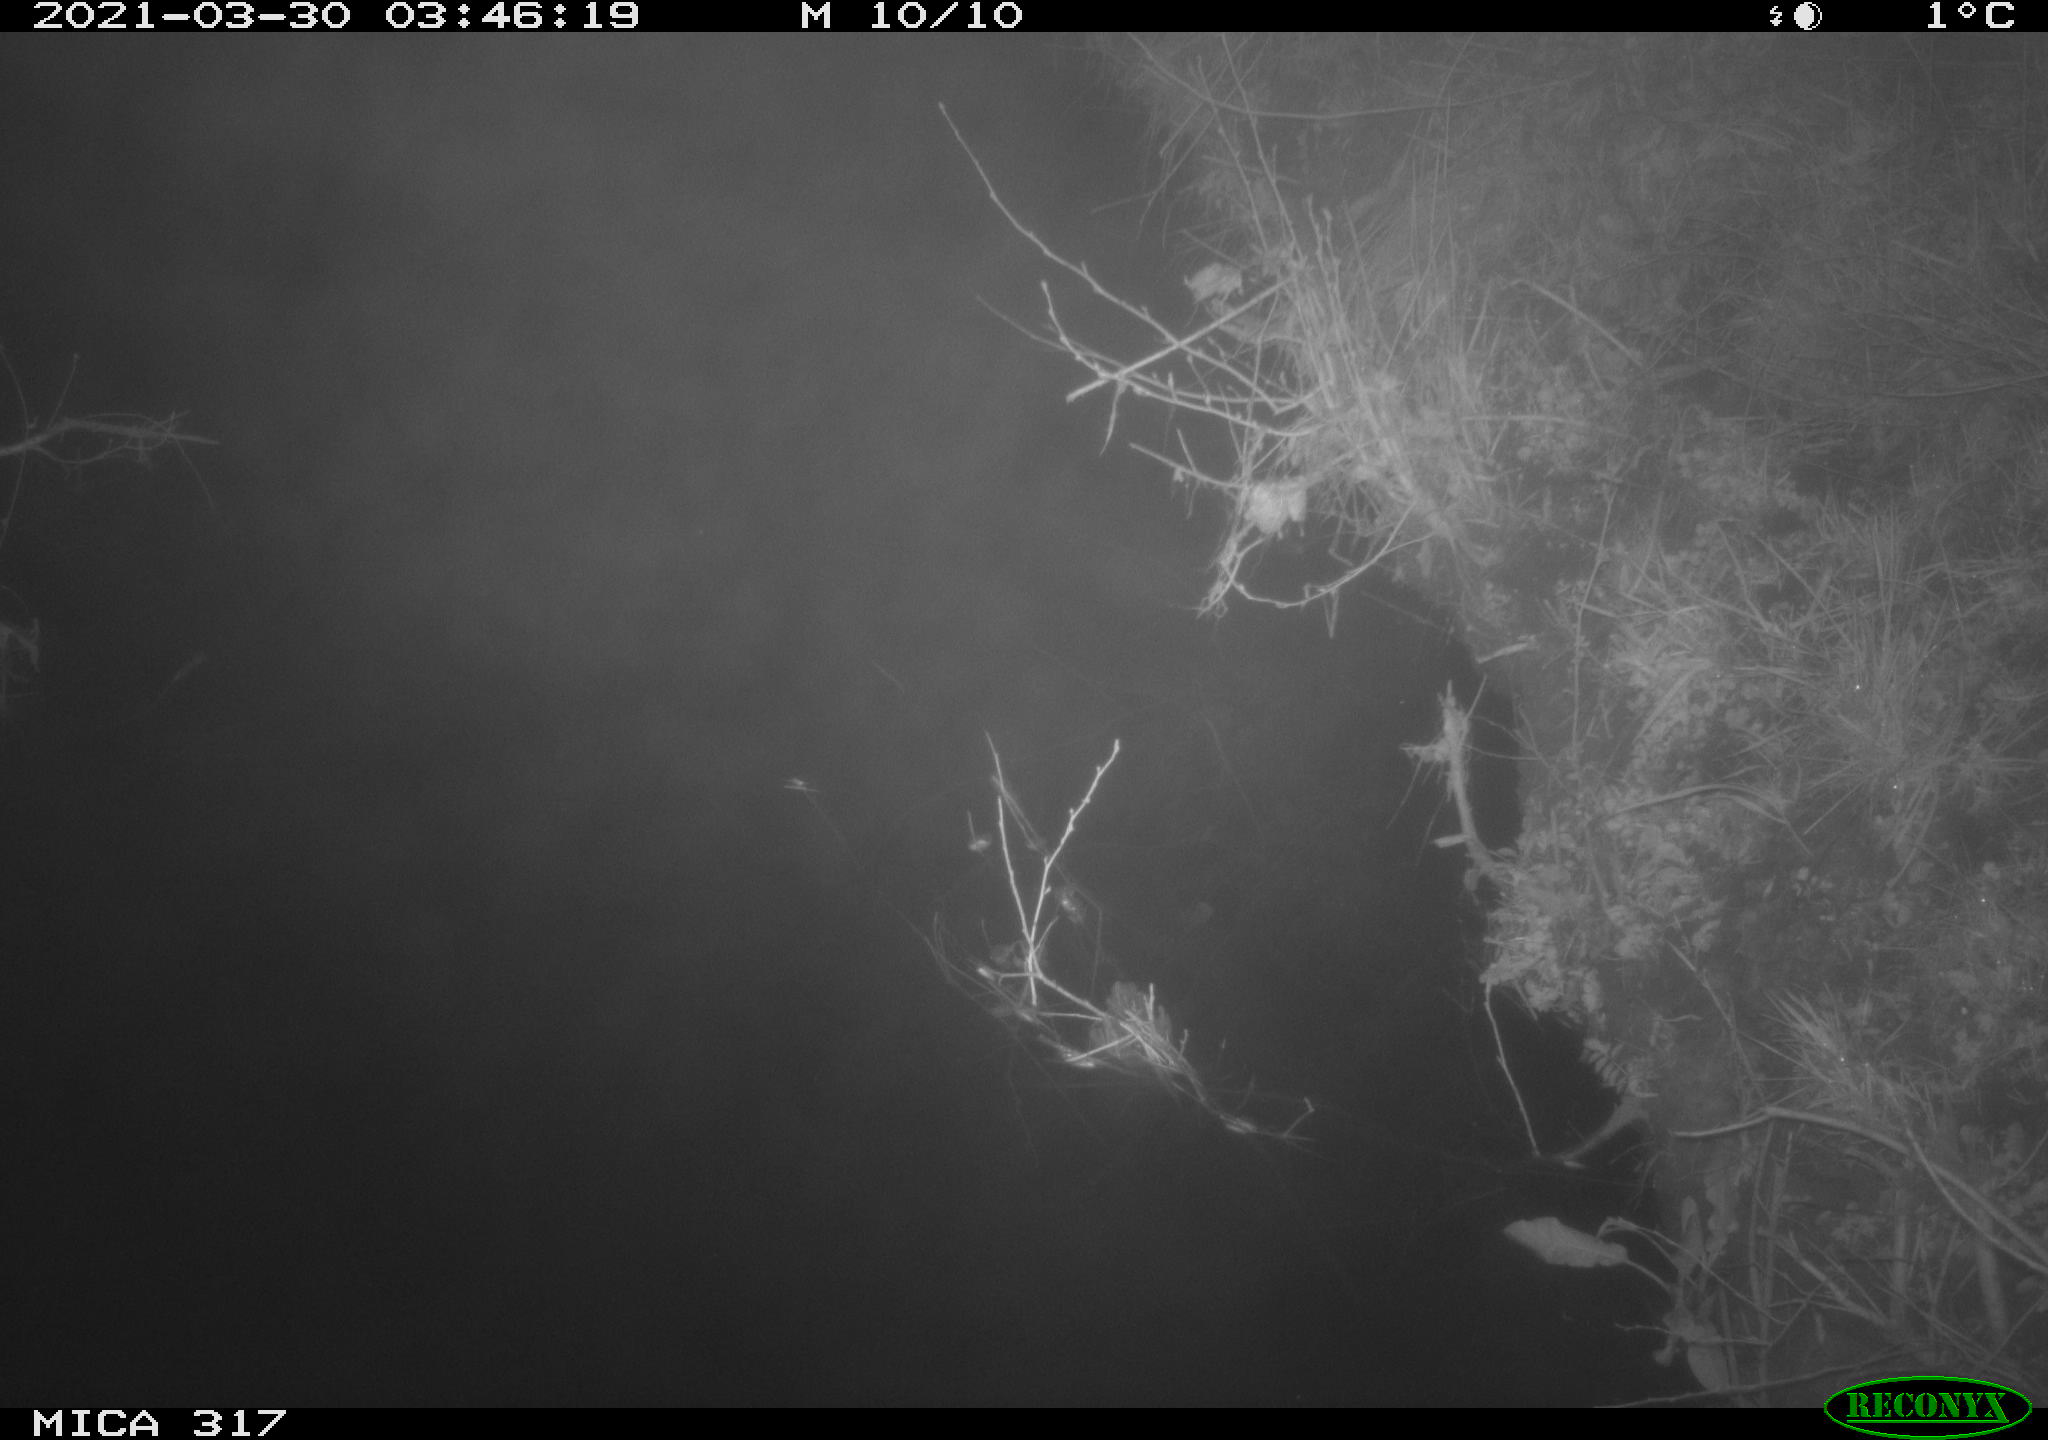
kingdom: Animalia
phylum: Chordata
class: Aves
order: Anseriformes
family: Anatidae
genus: Anas
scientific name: Anas platyrhynchos
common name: Mallard
